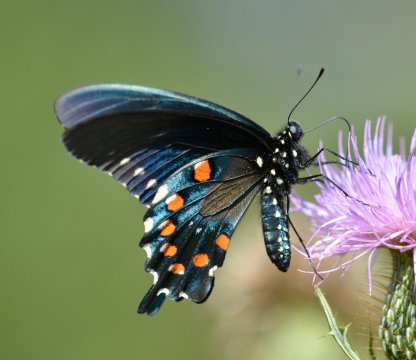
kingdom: Animalia
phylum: Arthropoda
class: Insecta
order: Lepidoptera
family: Papilionidae
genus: Battus
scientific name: Battus philenor
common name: Pipevine Swallowtail
